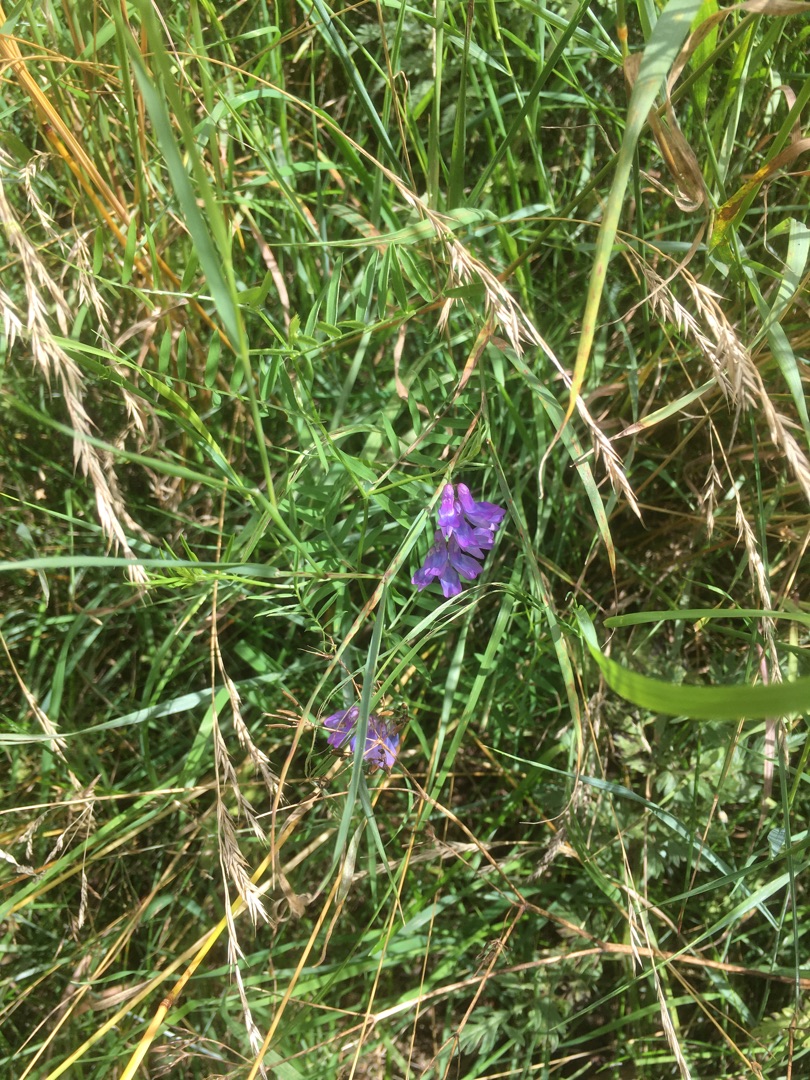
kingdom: Plantae
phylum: Tracheophyta
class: Magnoliopsida
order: Fabales
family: Fabaceae
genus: Vicia
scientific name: Vicia cracca
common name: Muse-vikke
